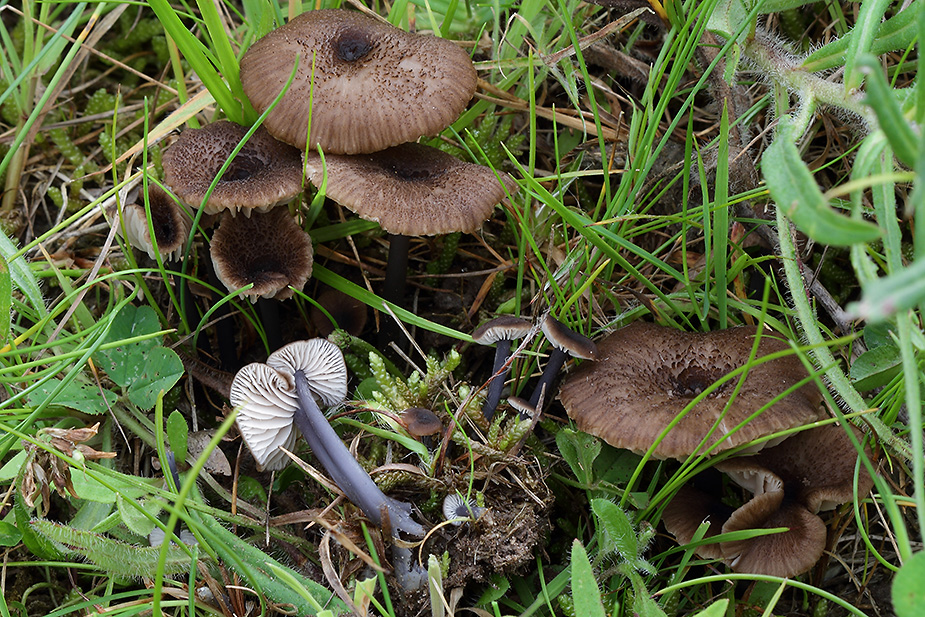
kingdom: Fungi
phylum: Basidiomycota
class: Agaricomycetes
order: Agaricales
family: Entolomataceae
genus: Entoloma
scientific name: Entoloma asprellum
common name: ru rødblad
